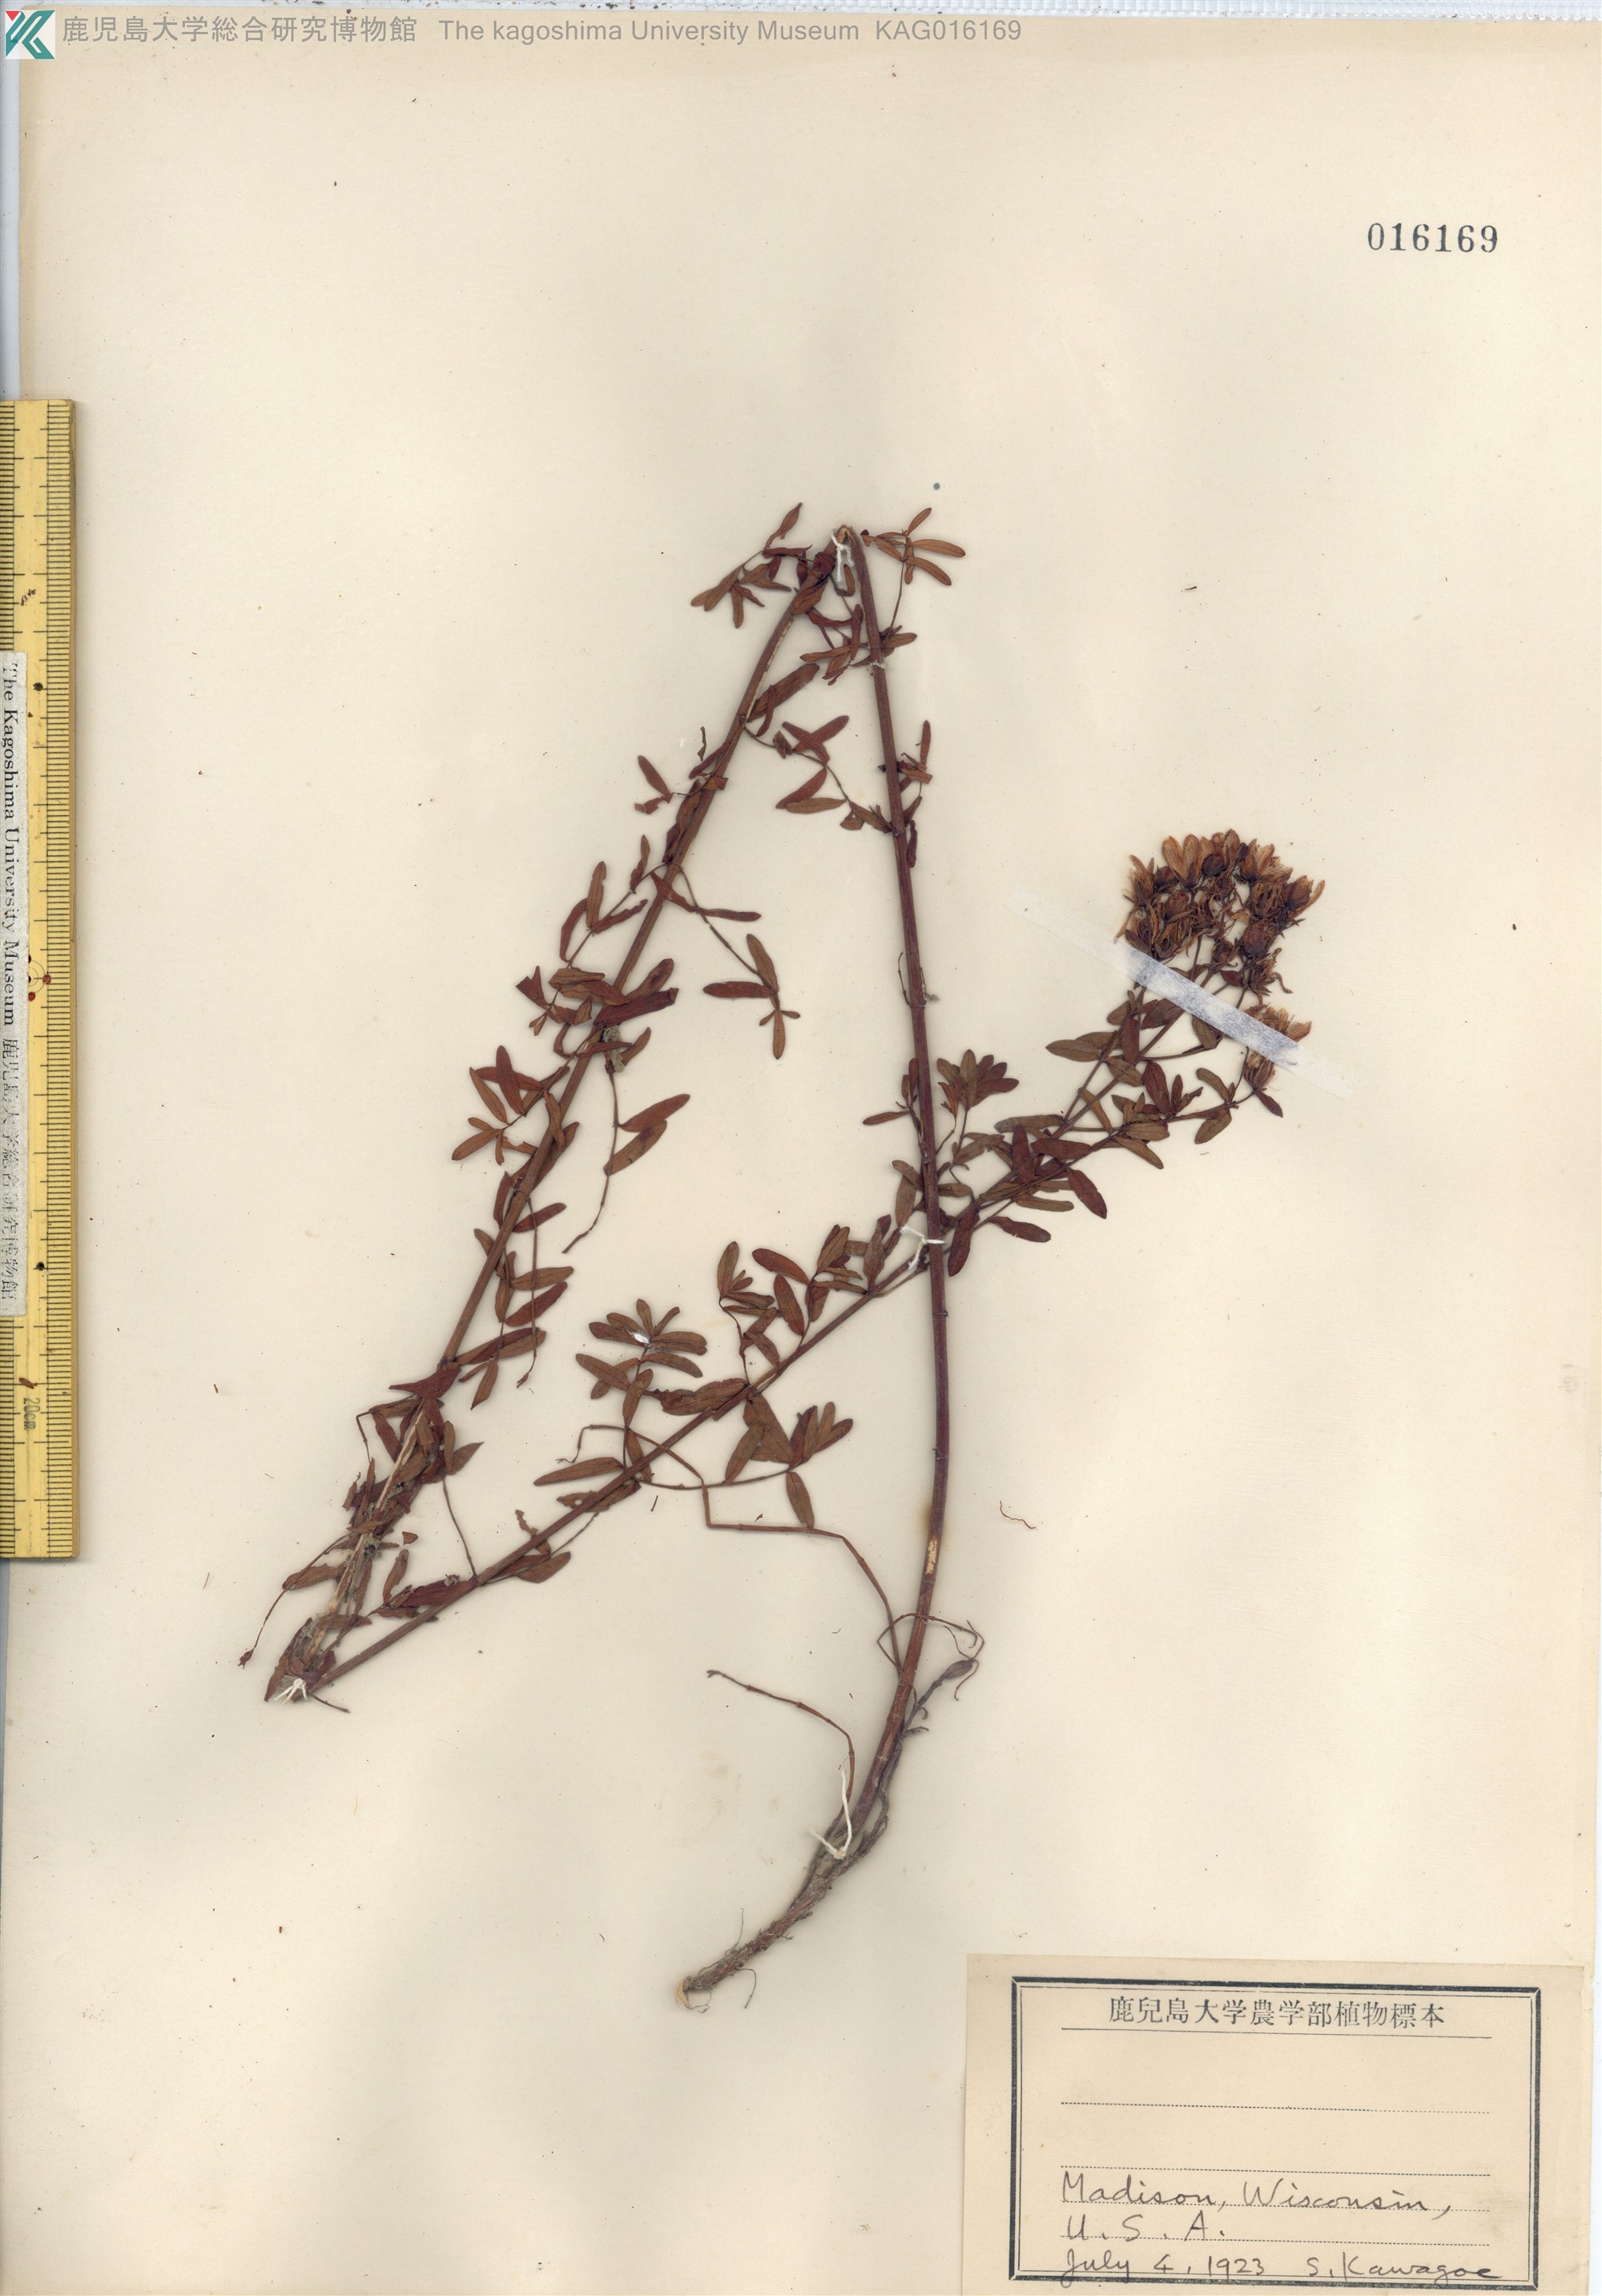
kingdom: Plantae
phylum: Tracheophyta
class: Magnoliopsida
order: Malpighiales
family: Hypericaceae
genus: Hypericum
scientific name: Hypericum
